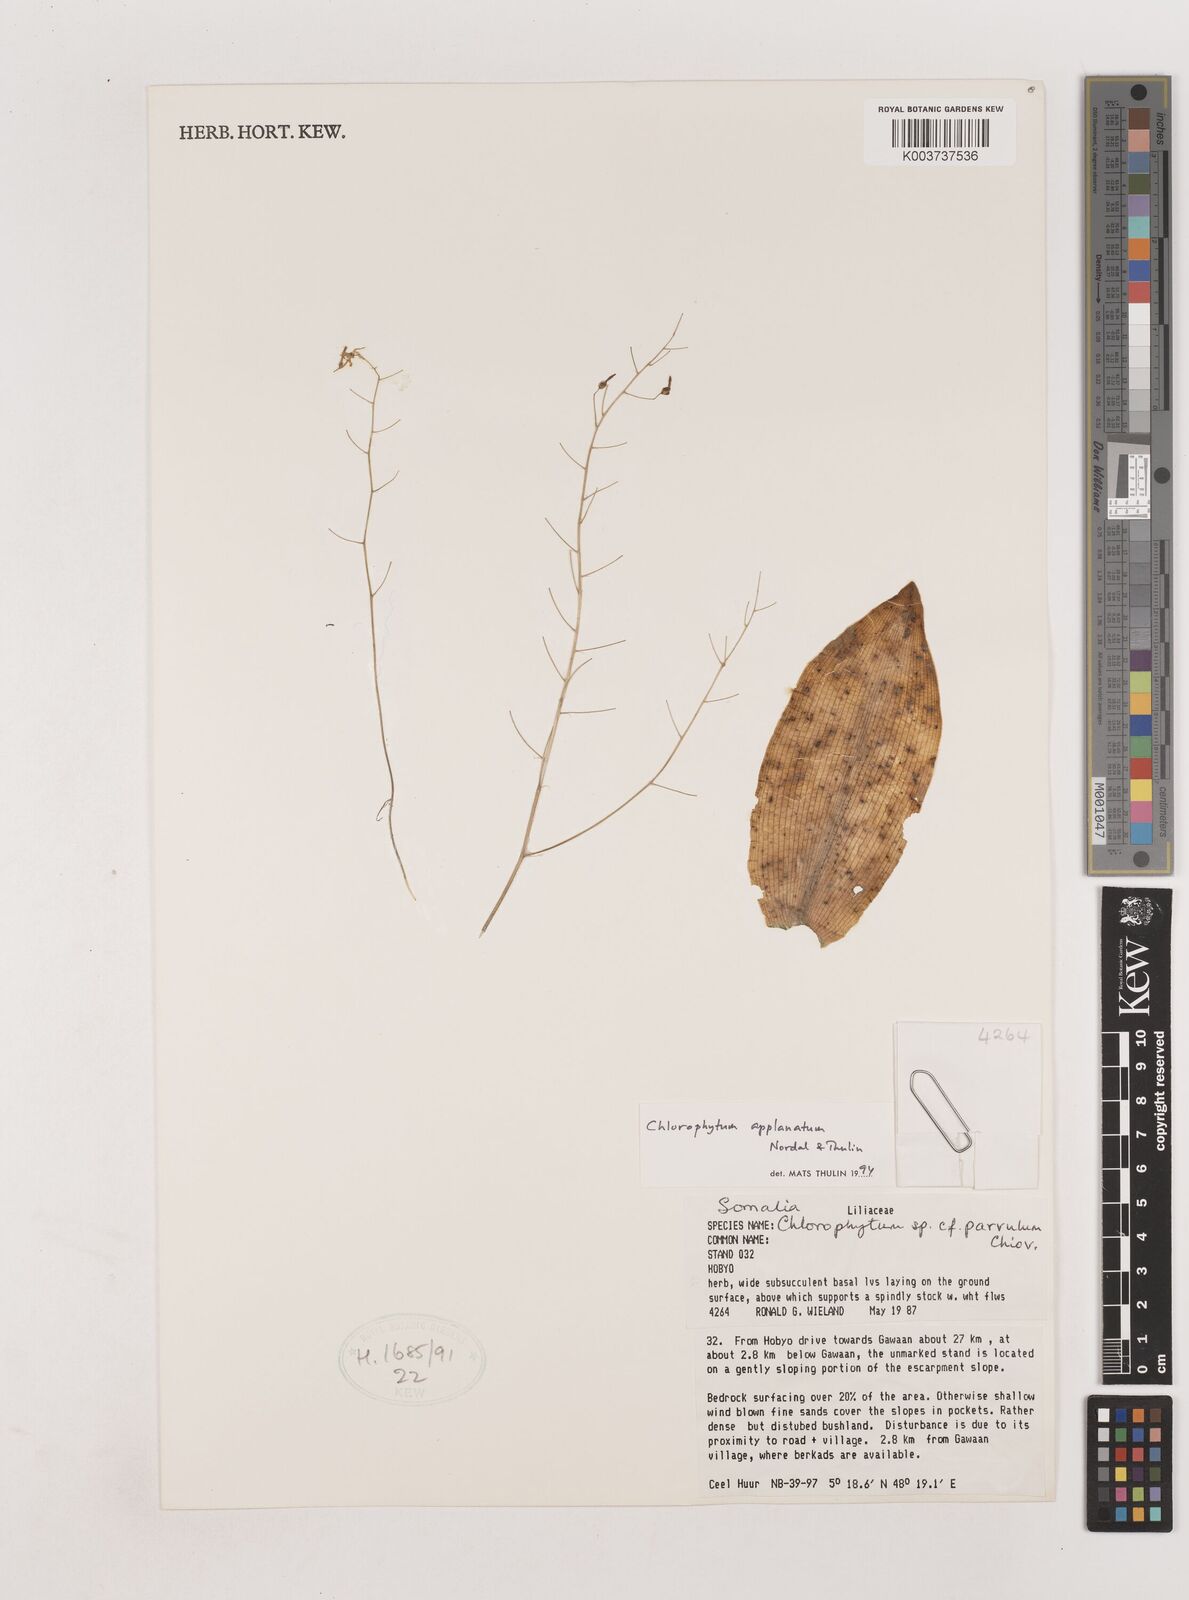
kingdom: Plantae
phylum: Tracheophyta
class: Liliopsida
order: Asparagales
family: Asparagaceae
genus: Chlorophytum
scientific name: Chlorophytum appendiculatum
